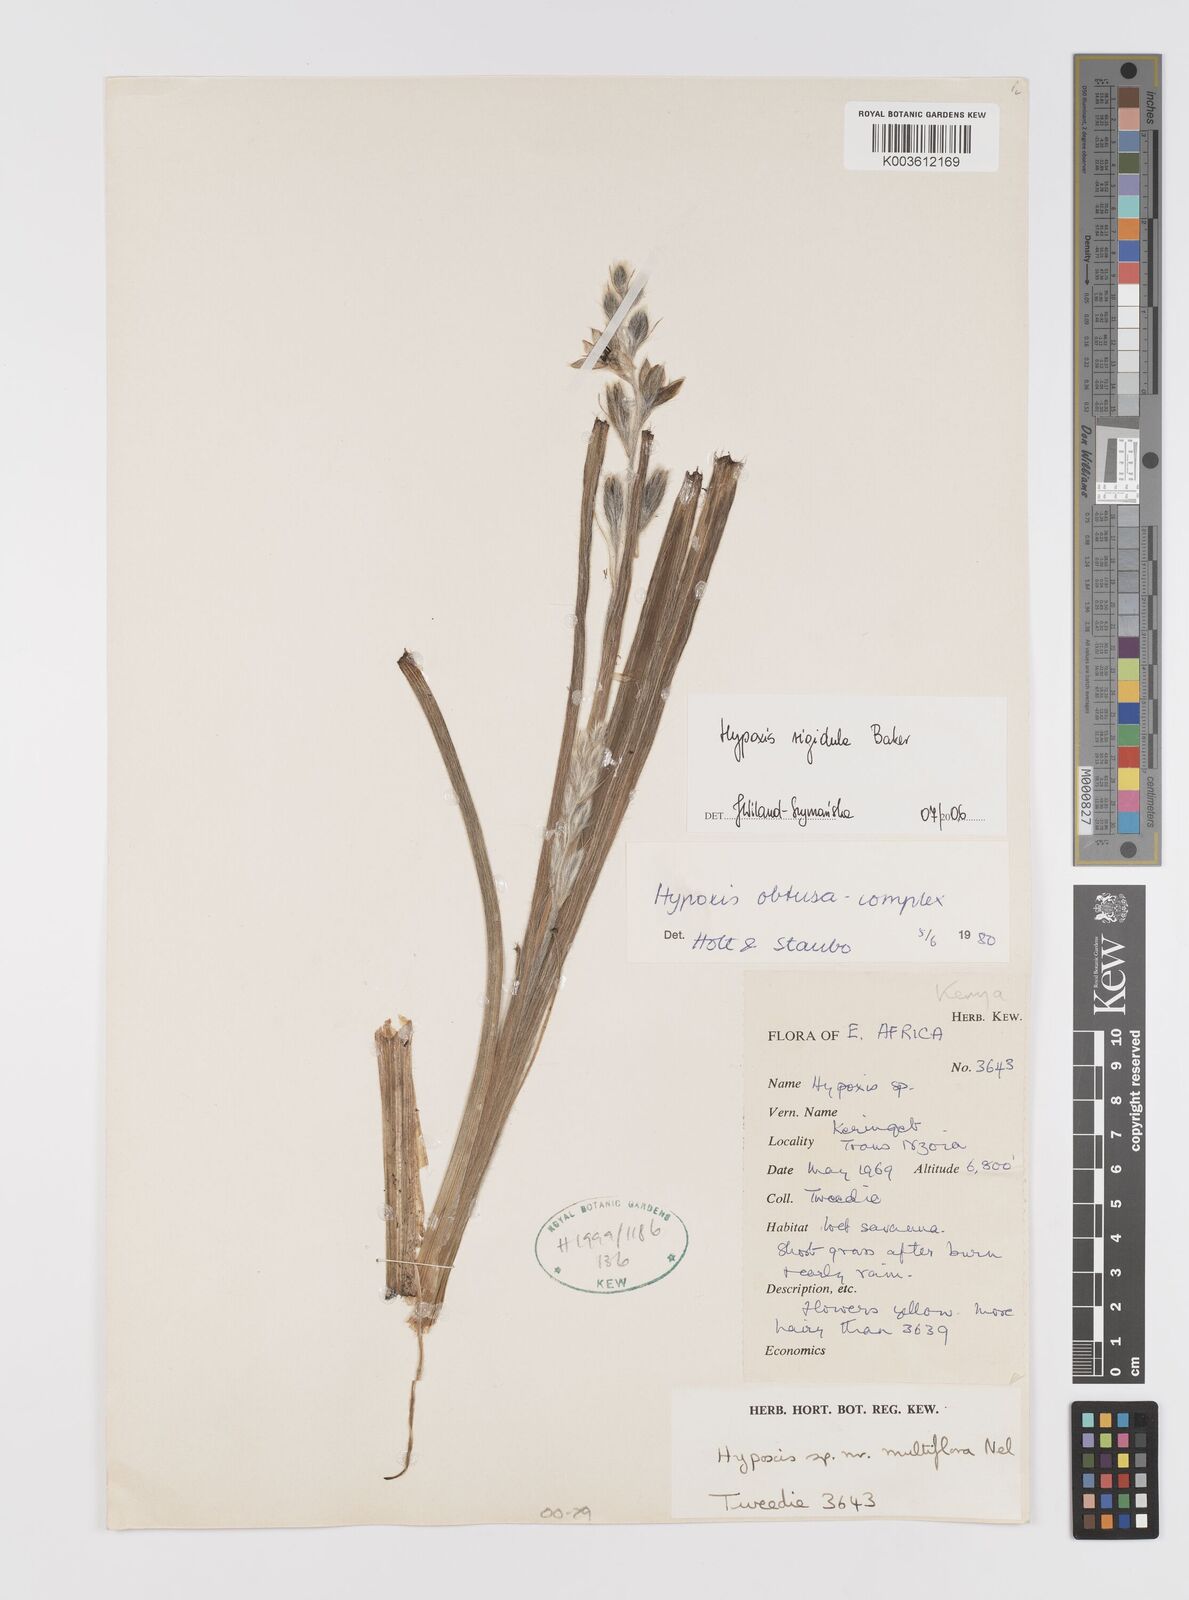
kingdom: Plantae
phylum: Tracheophyta
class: Liliopsida
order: Asparagales
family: Hypoxidaceae
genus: Hypoxis
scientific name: Hypoxis rigidula
